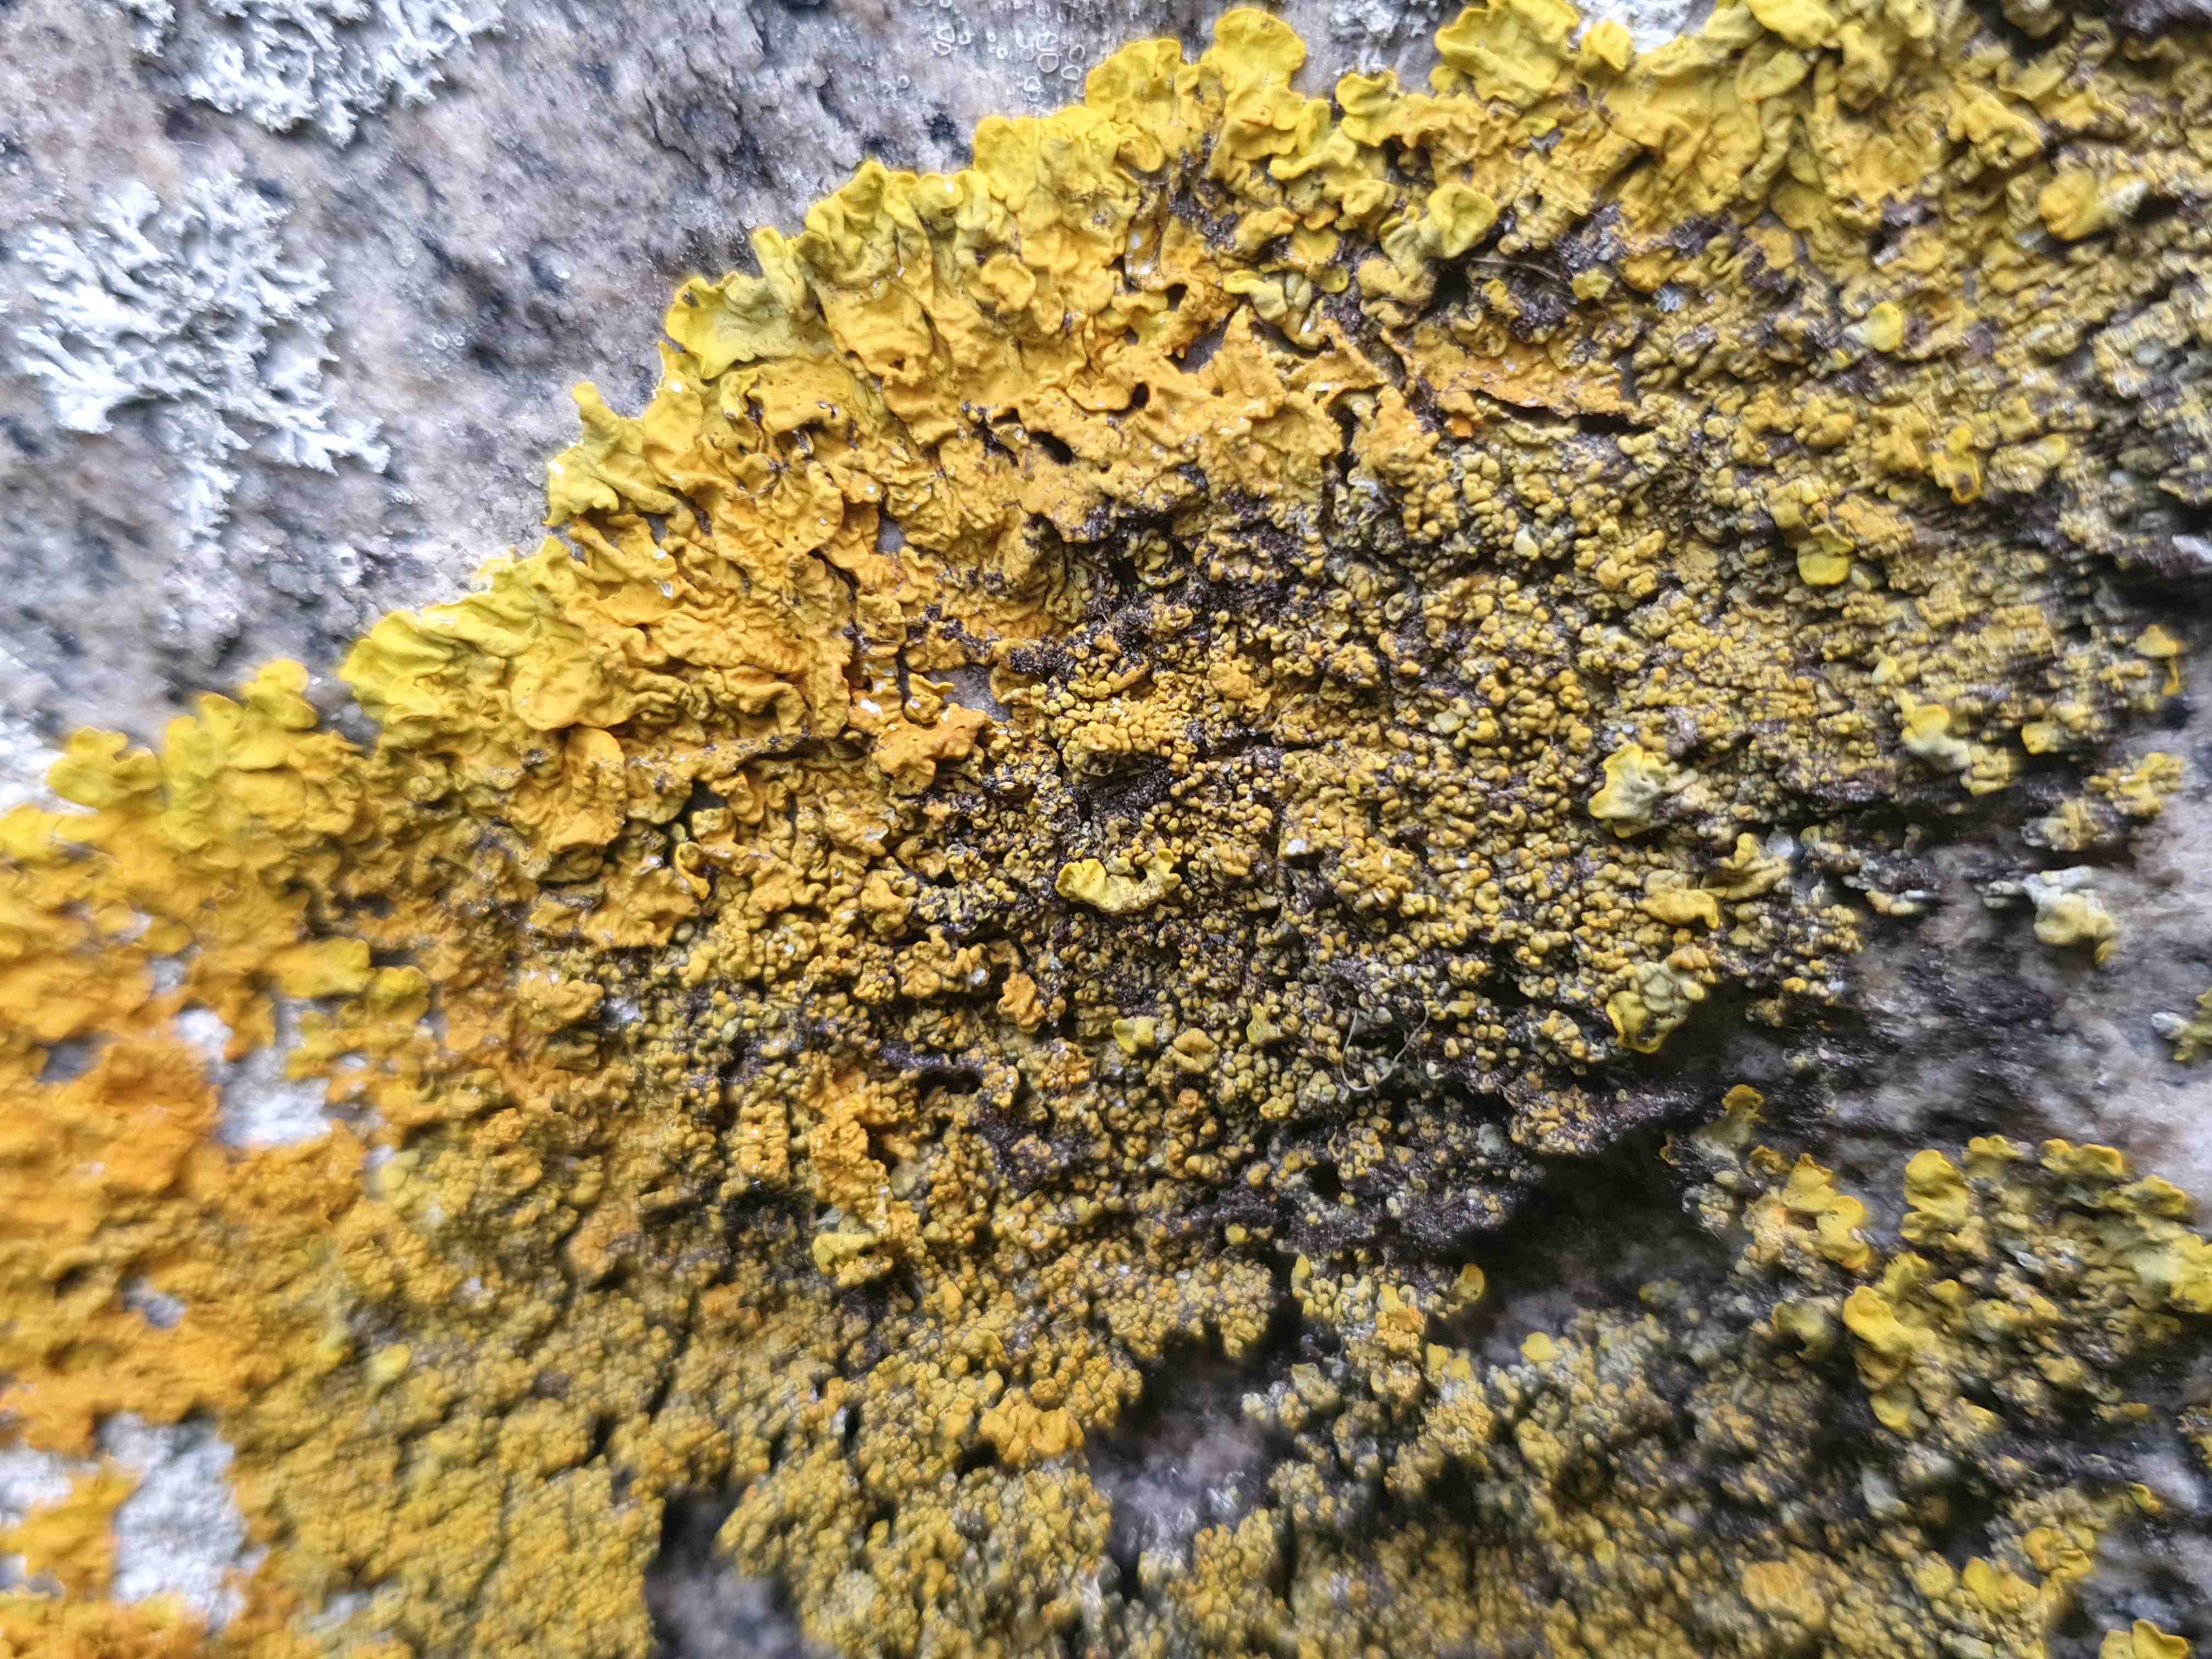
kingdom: Fungi
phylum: Ascomycota
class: Lecanoromycetes
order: Teloschistales
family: Teloschistaceae
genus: Xanthoria
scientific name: Xanthoria calcicola
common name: vortet væggelav
